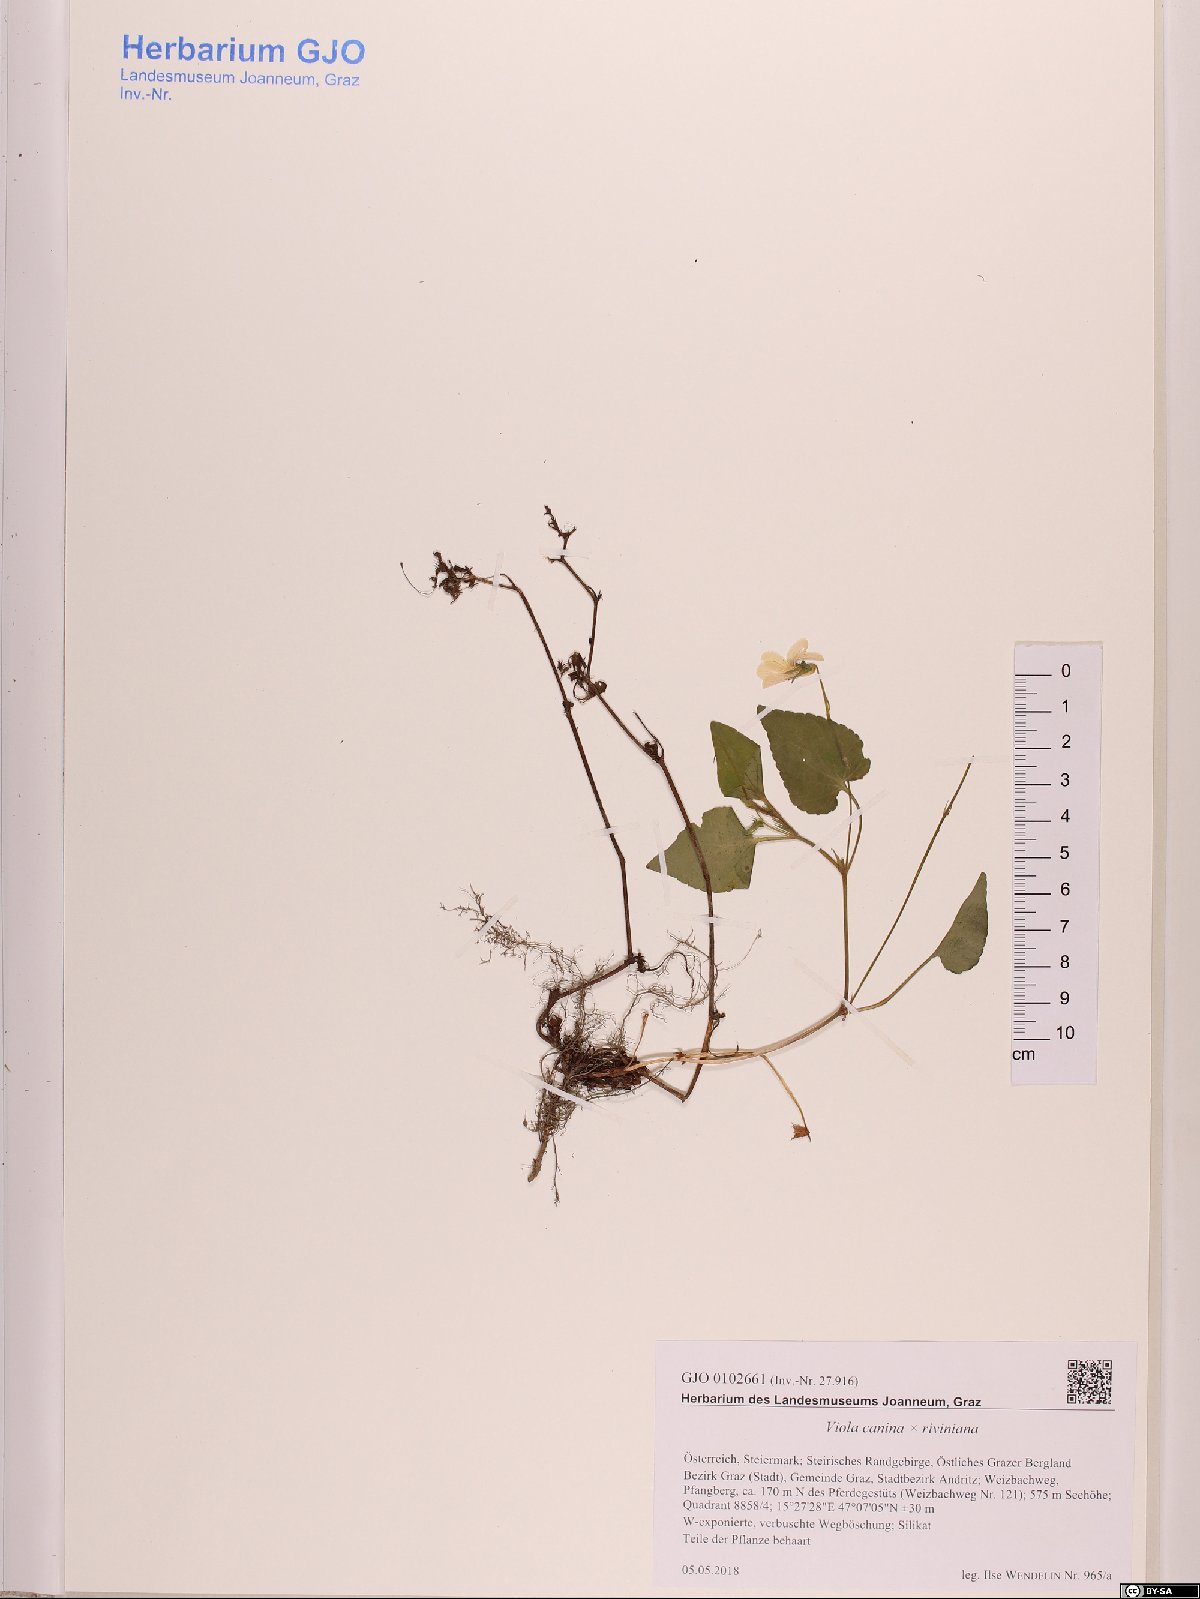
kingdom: Plantae
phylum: Tracheophyta
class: Magnoliopsida
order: Malpighiales
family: Violaceae
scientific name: Violaceae
